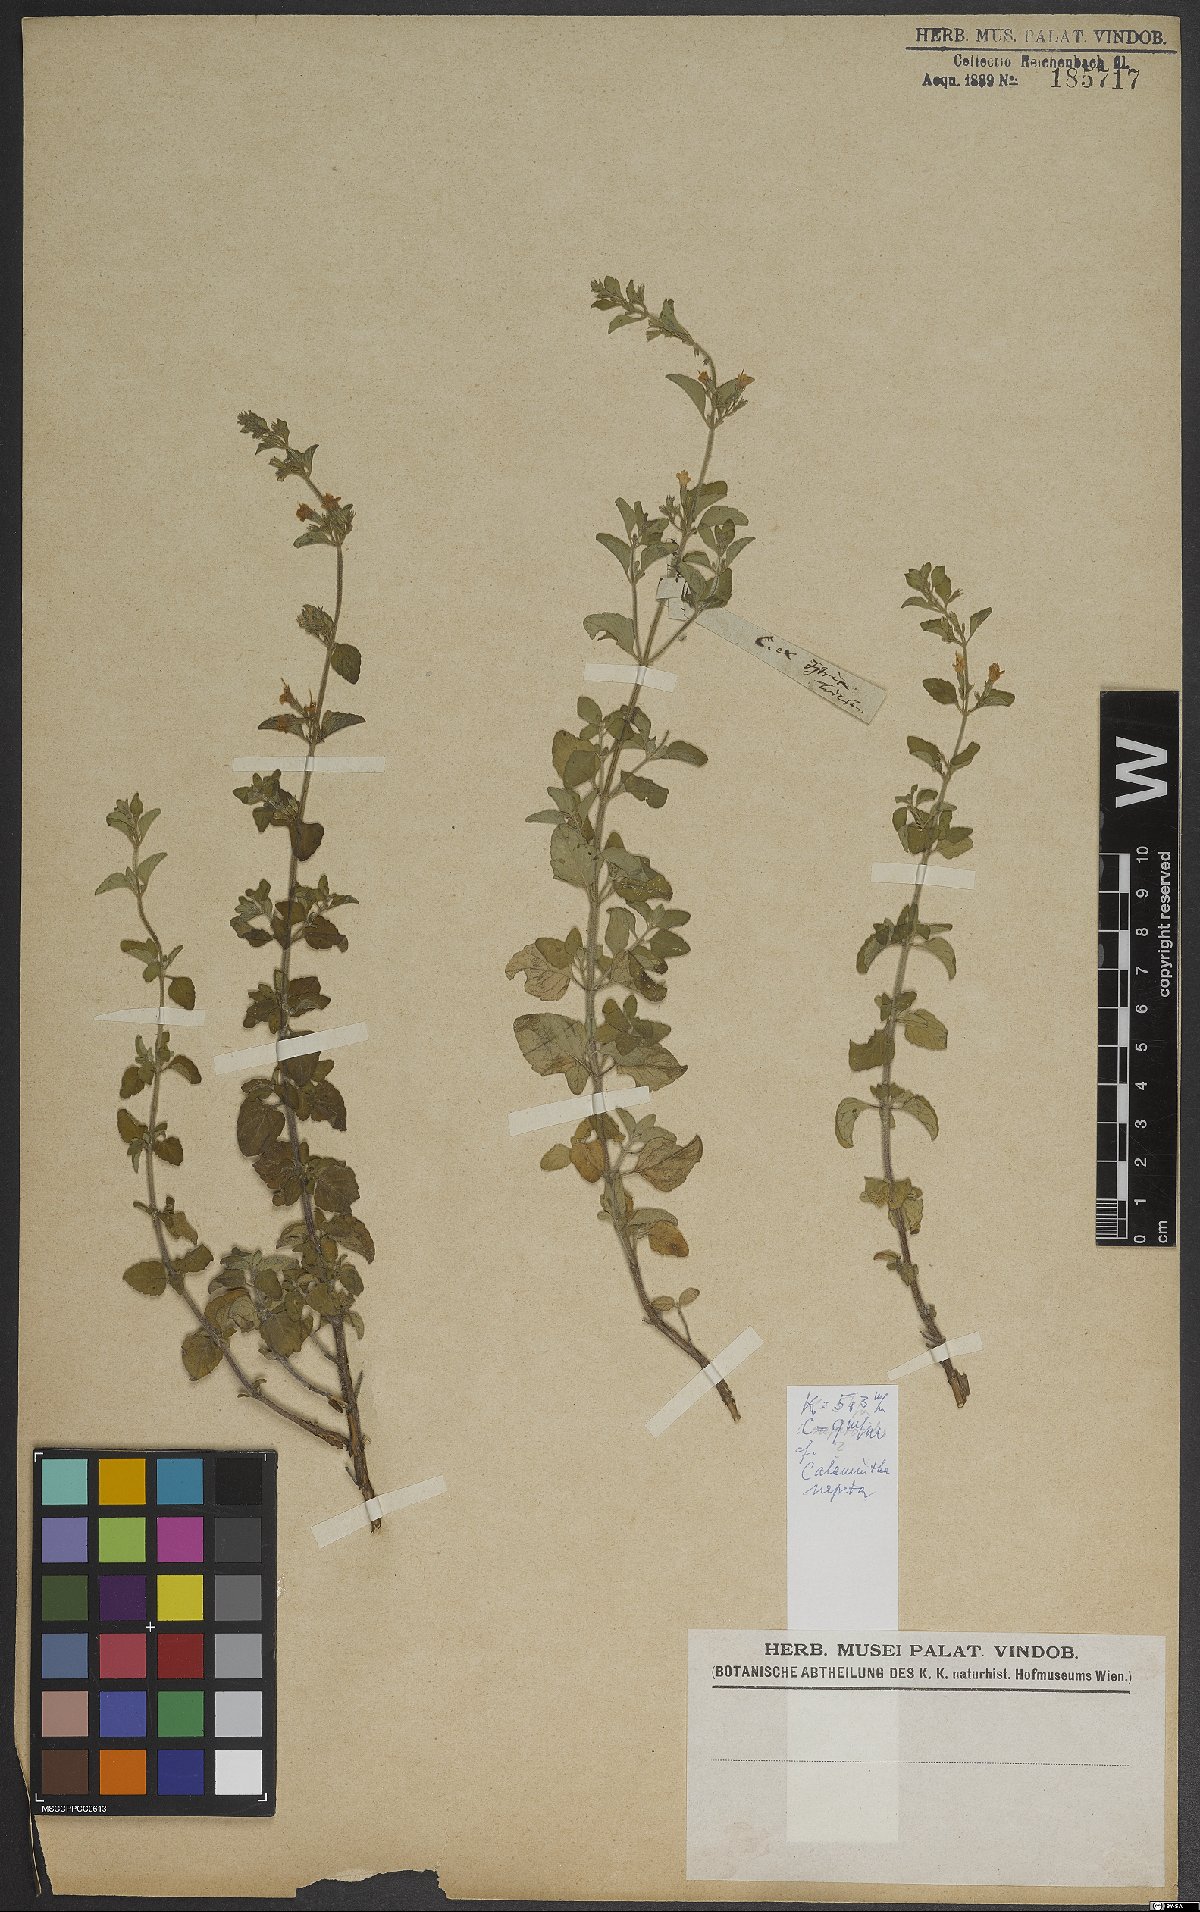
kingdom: Plantae
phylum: Tracheophyta
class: Magnoliopsida
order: Lamiales
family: Lamiaceae
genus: Clinopodium
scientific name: Clinopodium nepeta
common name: Lesser calamint
